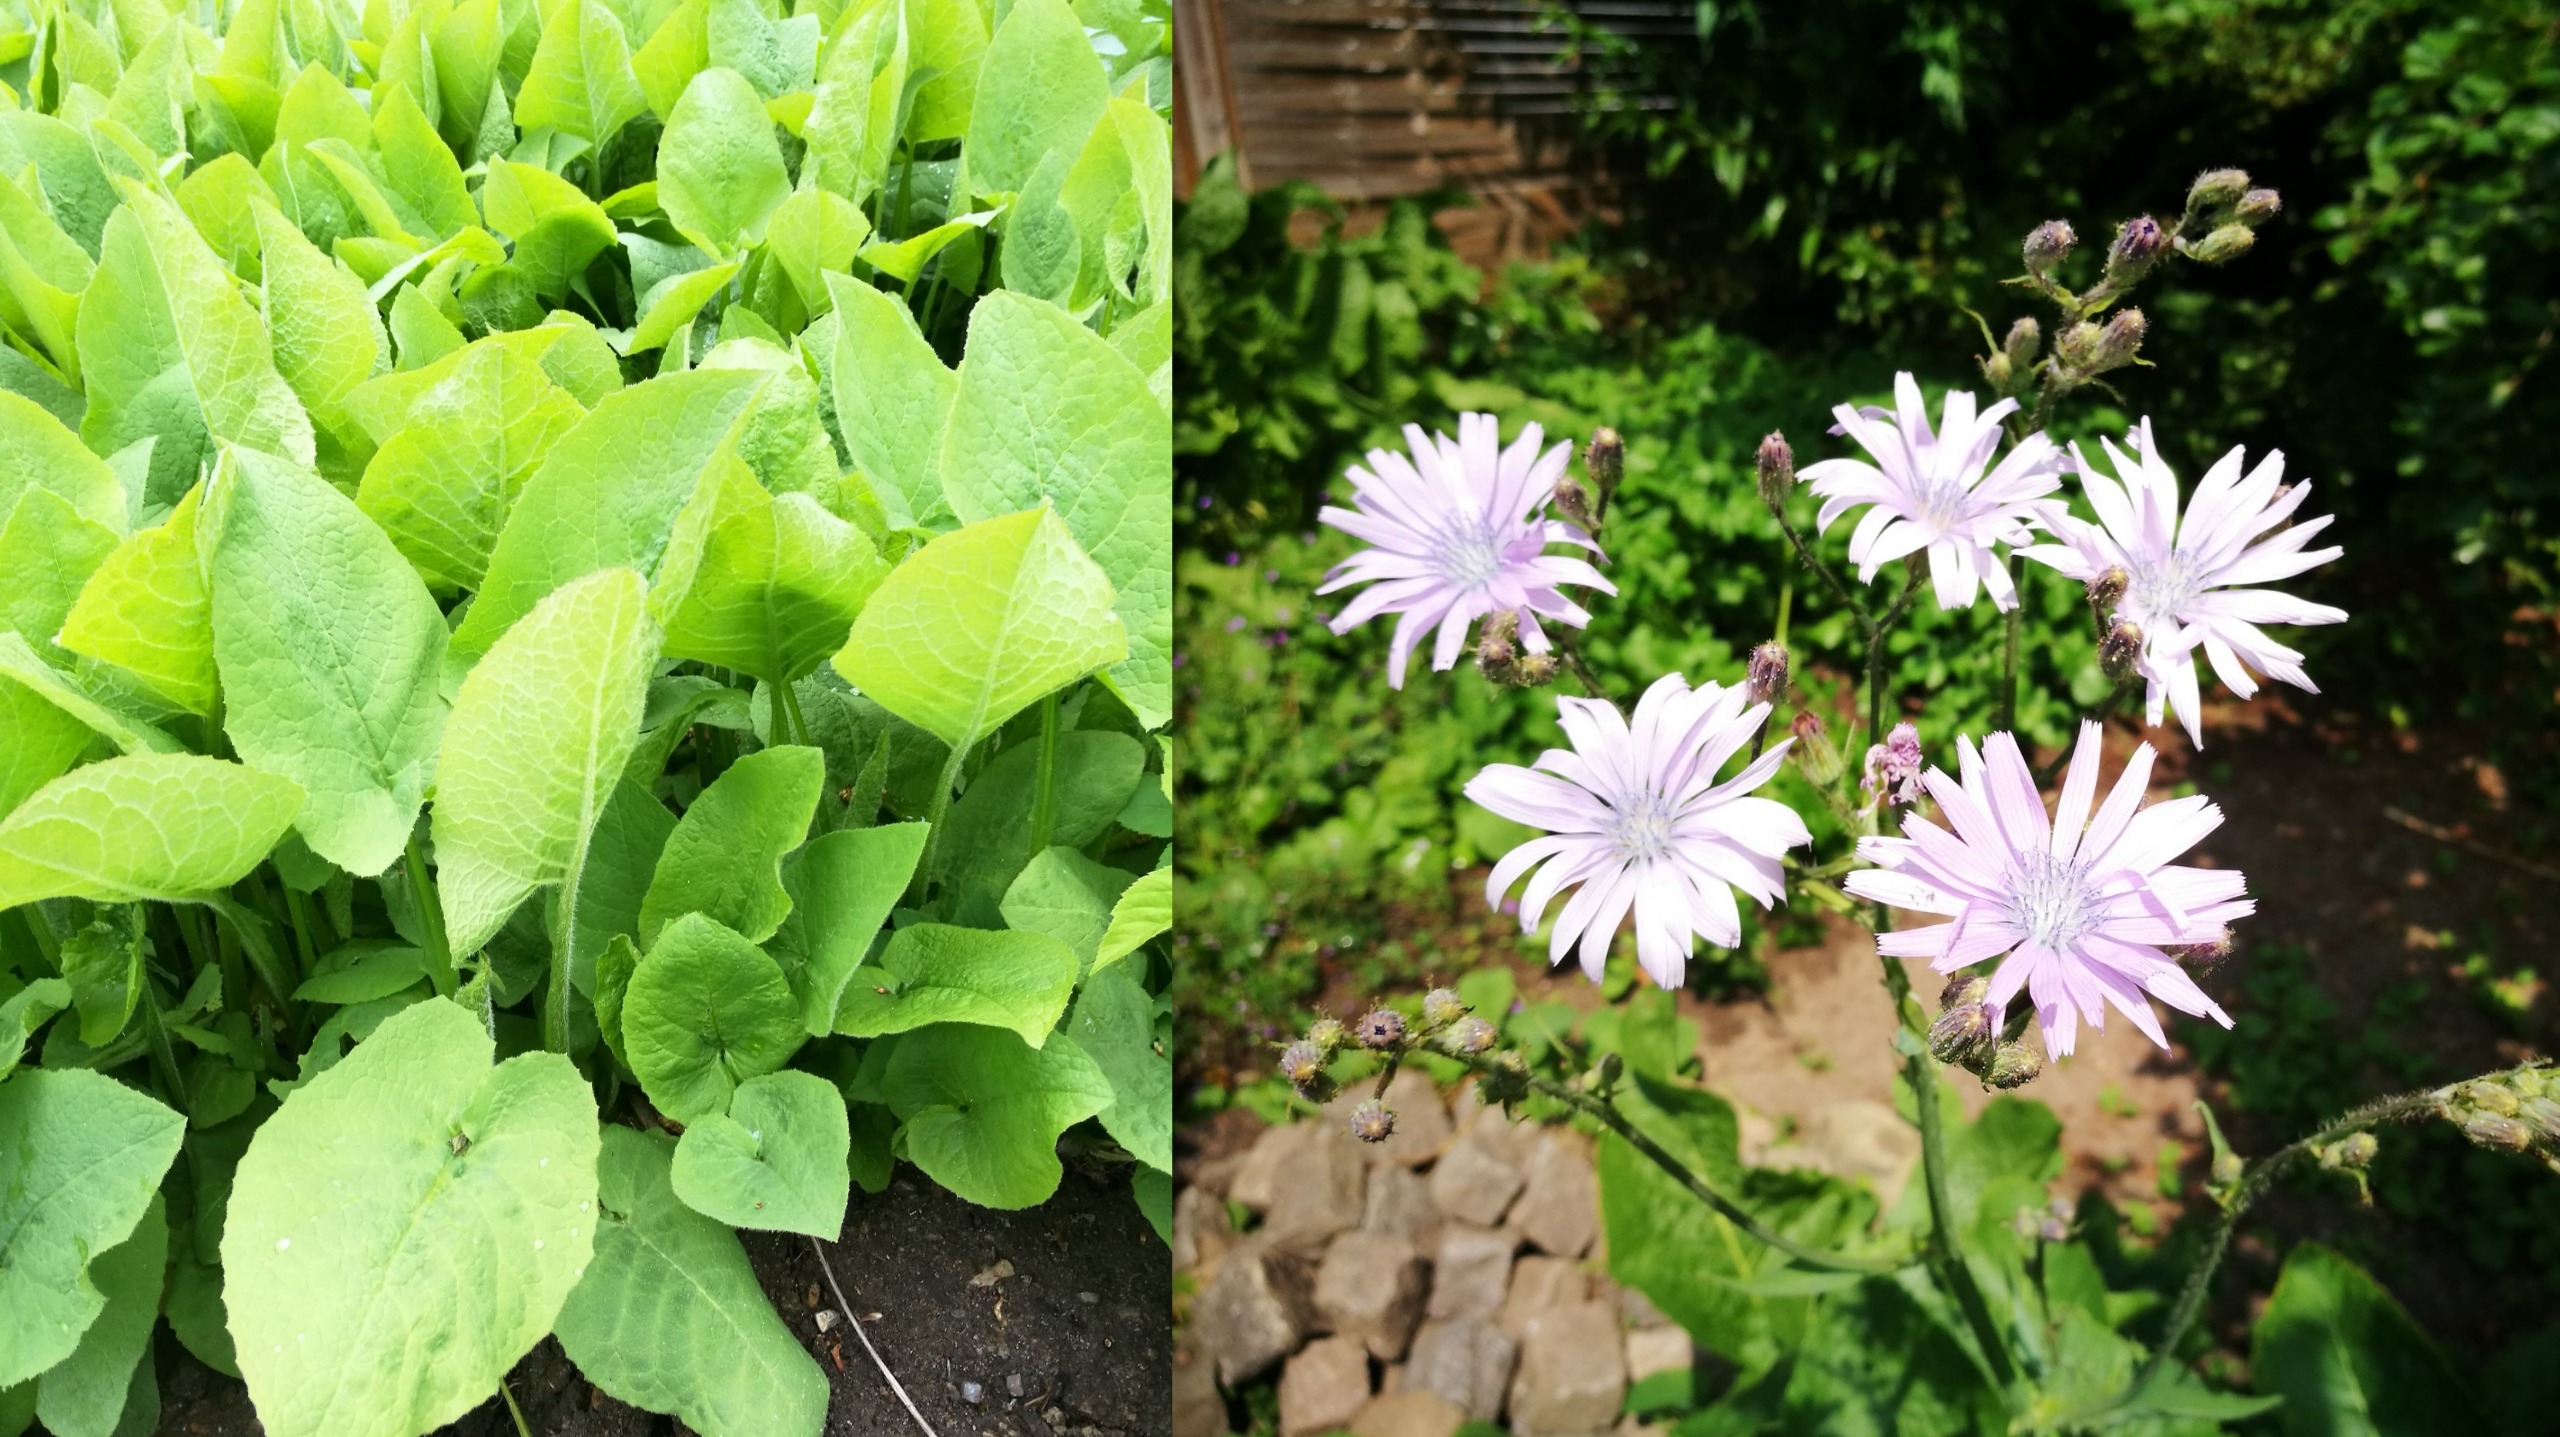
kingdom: Plantae
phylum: Tracheophyta
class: Magnoliopsida
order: Asterales
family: Asteraceae
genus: Lactuca
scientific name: Lactuca macrophylla
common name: Kæmpe-salat
